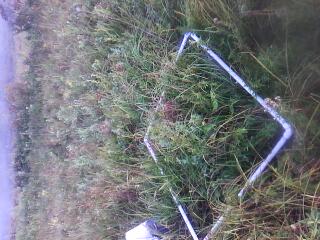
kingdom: Plantae
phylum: Tracheophyta
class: Magnoliopsida
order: Asterales
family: Asteraceae
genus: Solidago
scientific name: Solidago canadensis
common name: Canada goldenrod
